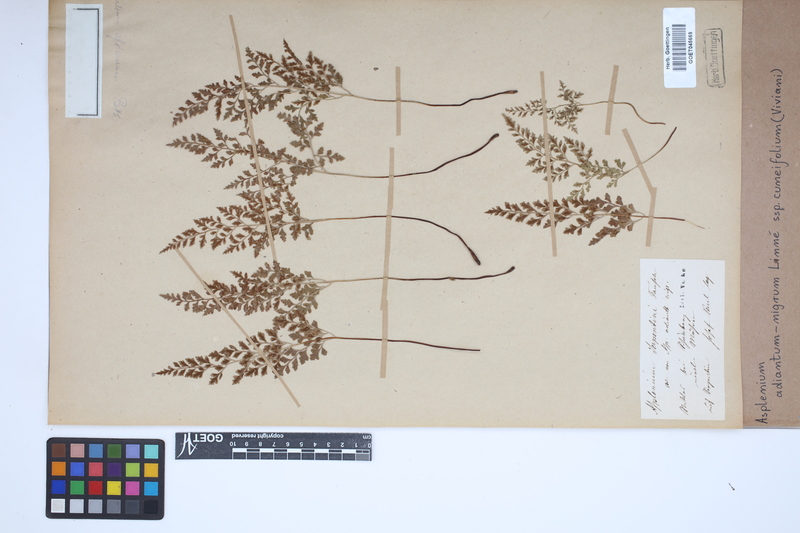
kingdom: Plantae
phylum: Tracheophyta
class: Polypodiopsida
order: Polypodiales
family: Aspleniaceae
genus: Asplenium
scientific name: Asplenium cuneifolium
